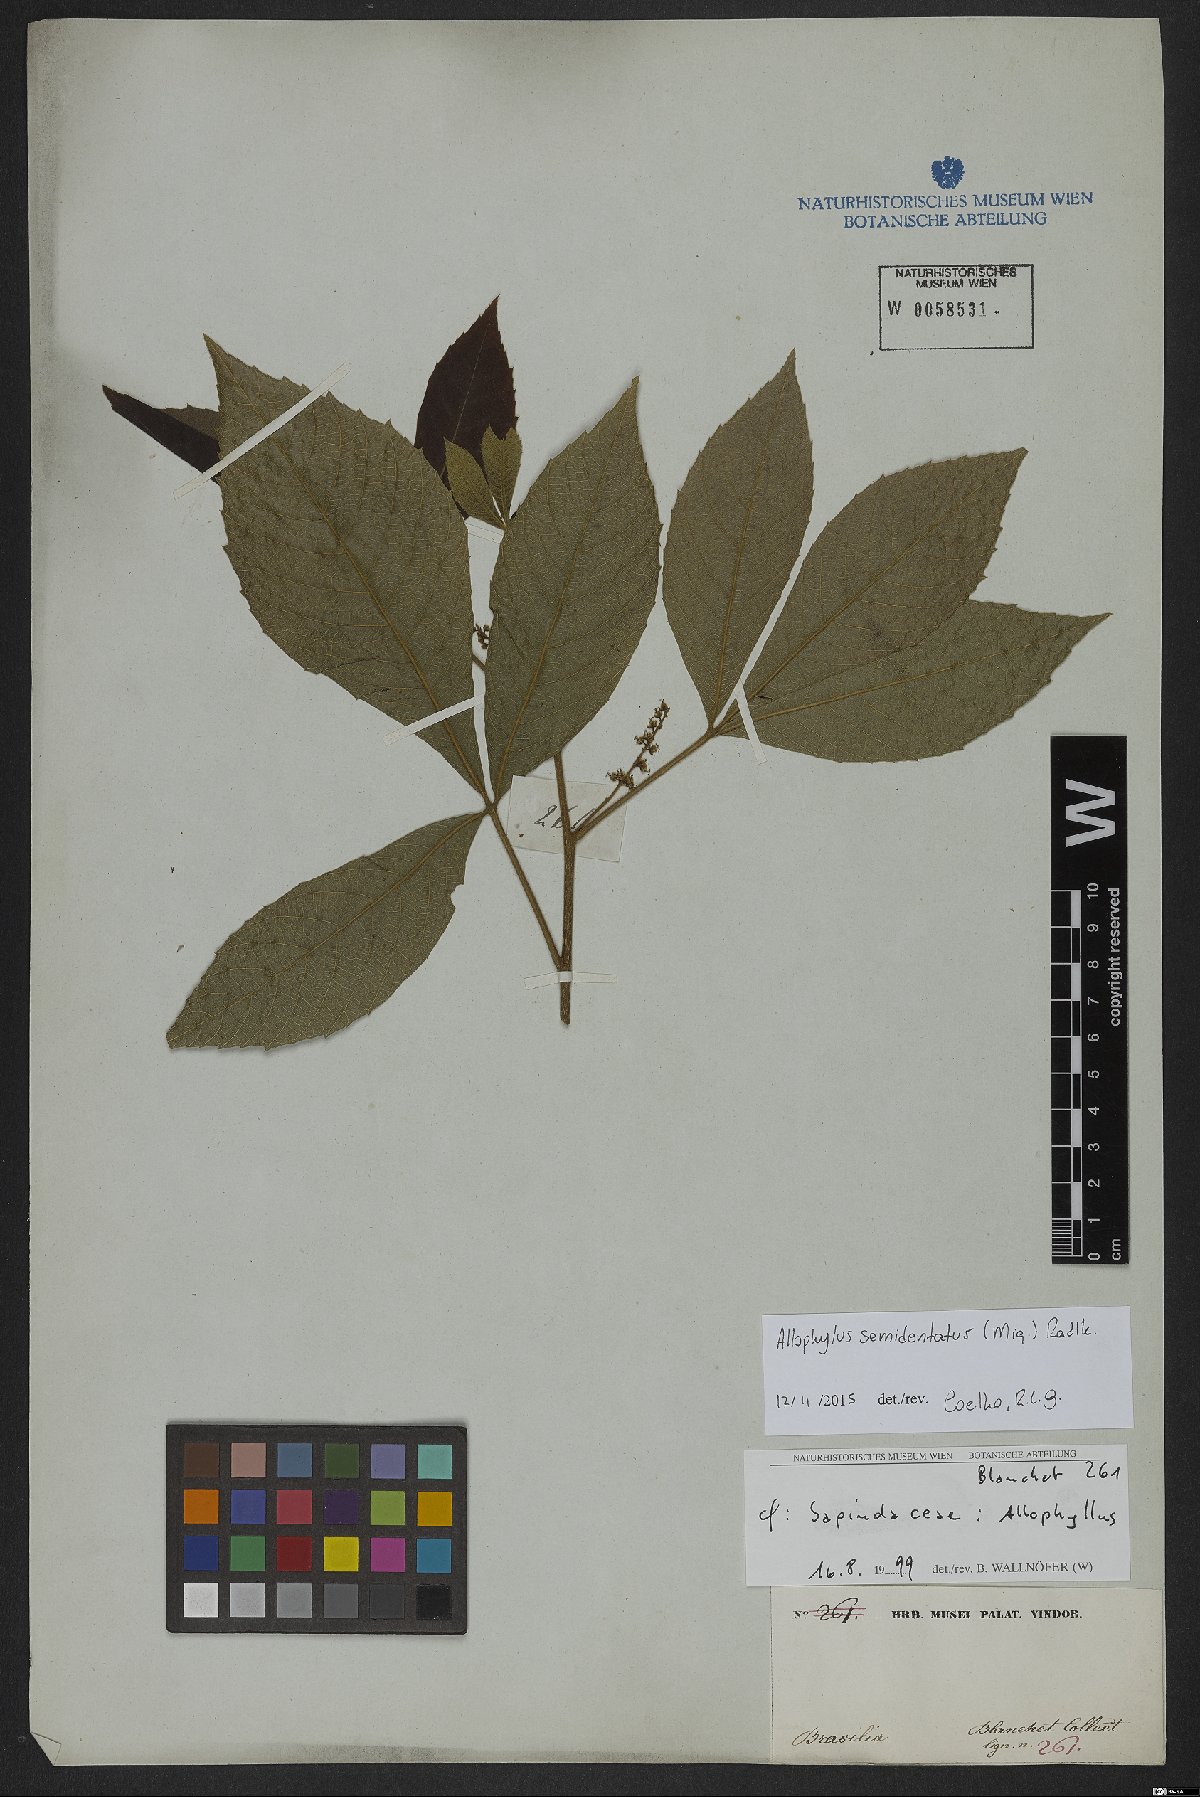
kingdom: Plantae
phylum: Tracheophyta
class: Magnoliopsida
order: Sapindales
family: Sapindaceae
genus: Allophylus
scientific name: Allophylus semidentatus
